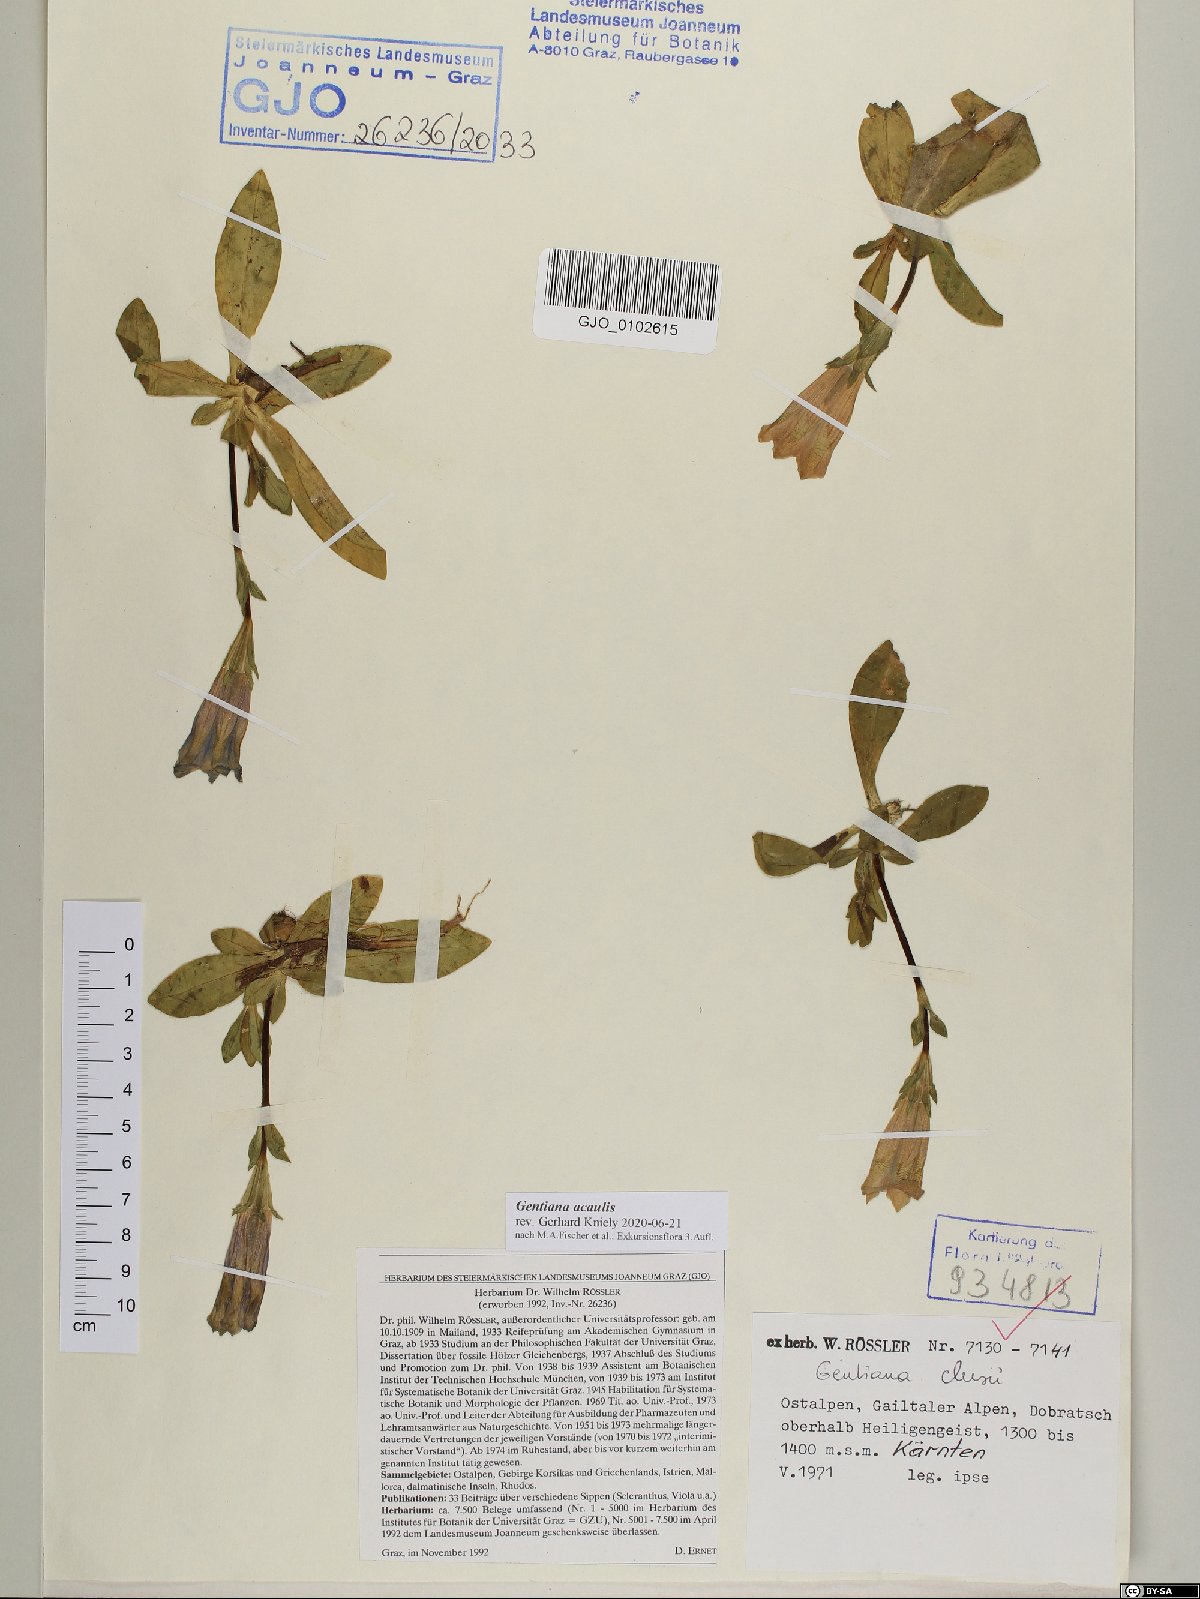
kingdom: Plantae
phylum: Tracheophyta
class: Magnoliopsida
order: Gentianales
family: Gentianaceae
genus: Gentiana
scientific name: Gentiana acaulis
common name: Trumpet gentian
